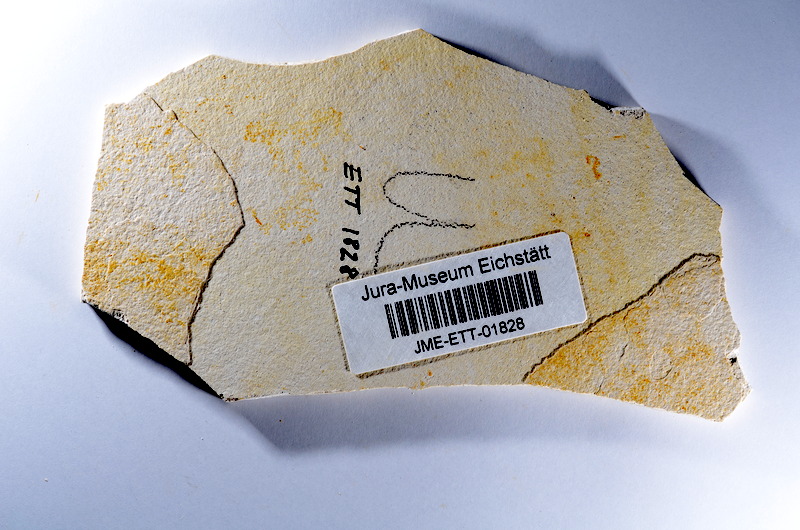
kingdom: Animalia
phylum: Chordata
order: Salmoniformes
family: Orthogonikleithridae
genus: Orthogonikleithrus
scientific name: Orthogonikleithrus hoelli
